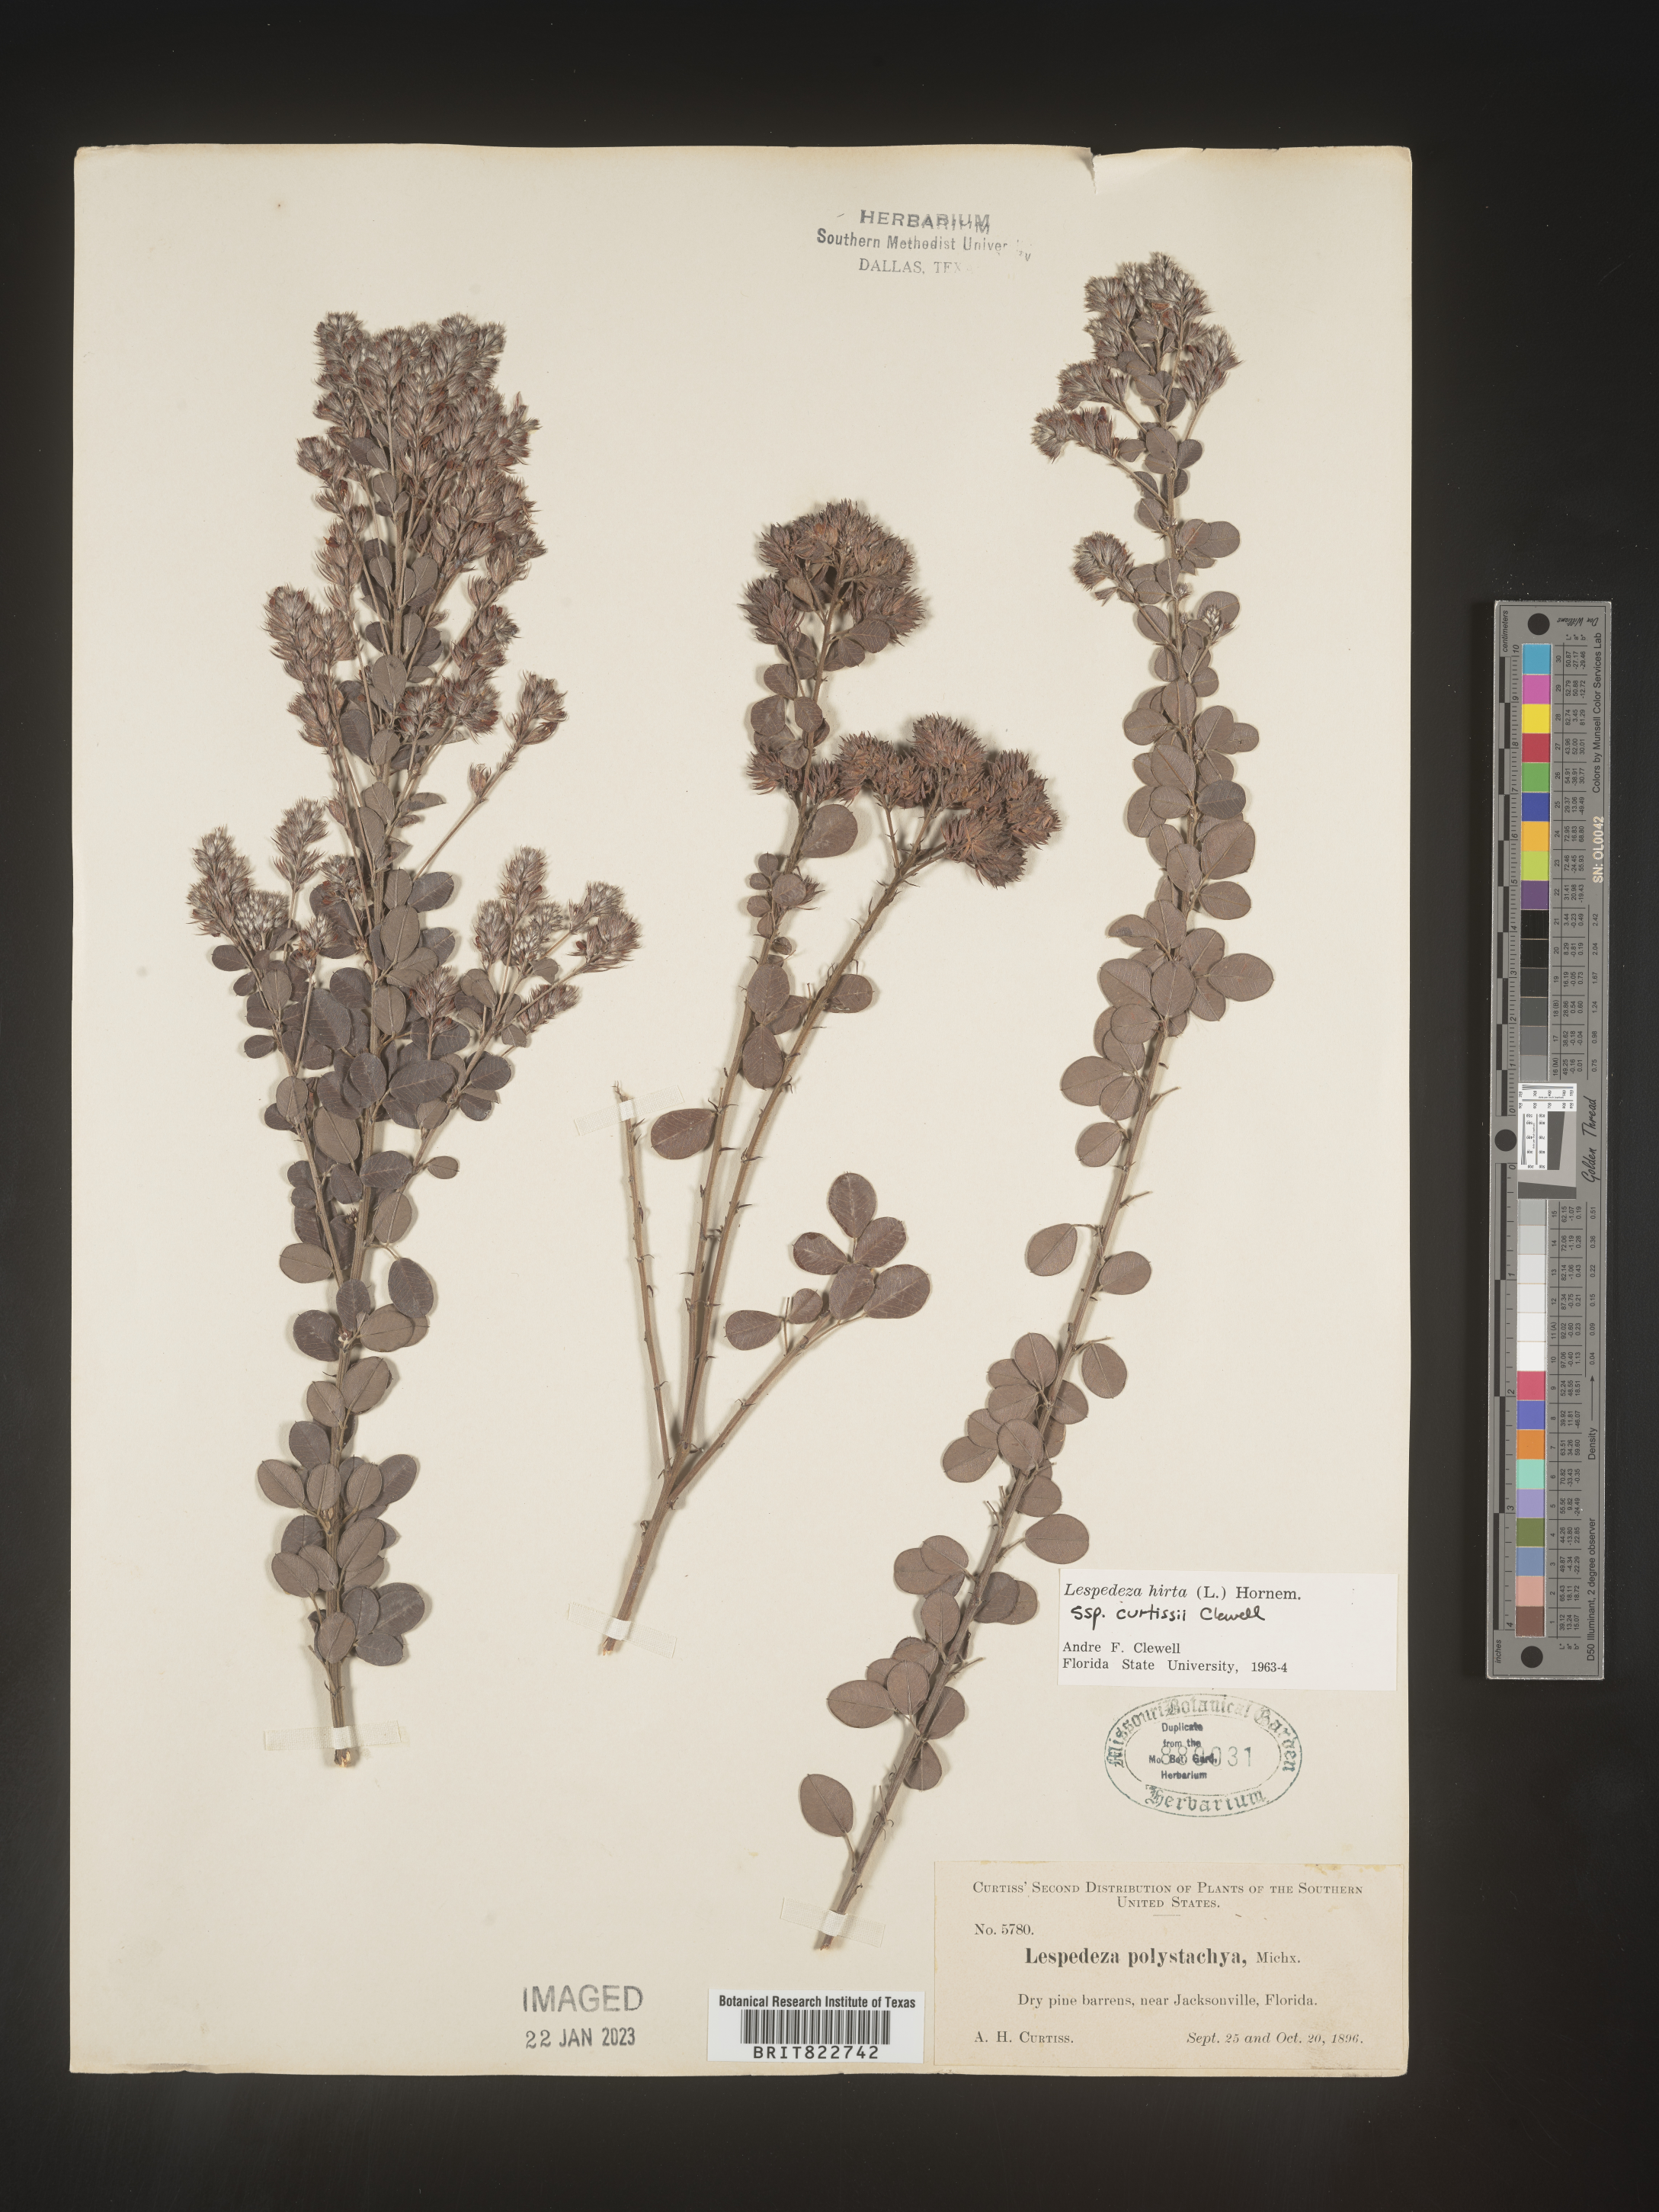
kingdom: Plantae
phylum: Tracheophyta
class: Magnoliopsida
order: Fabales
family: Fabaceae
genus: Lespedeza
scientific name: Lespedeza hirta
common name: Hairy lespedeza
